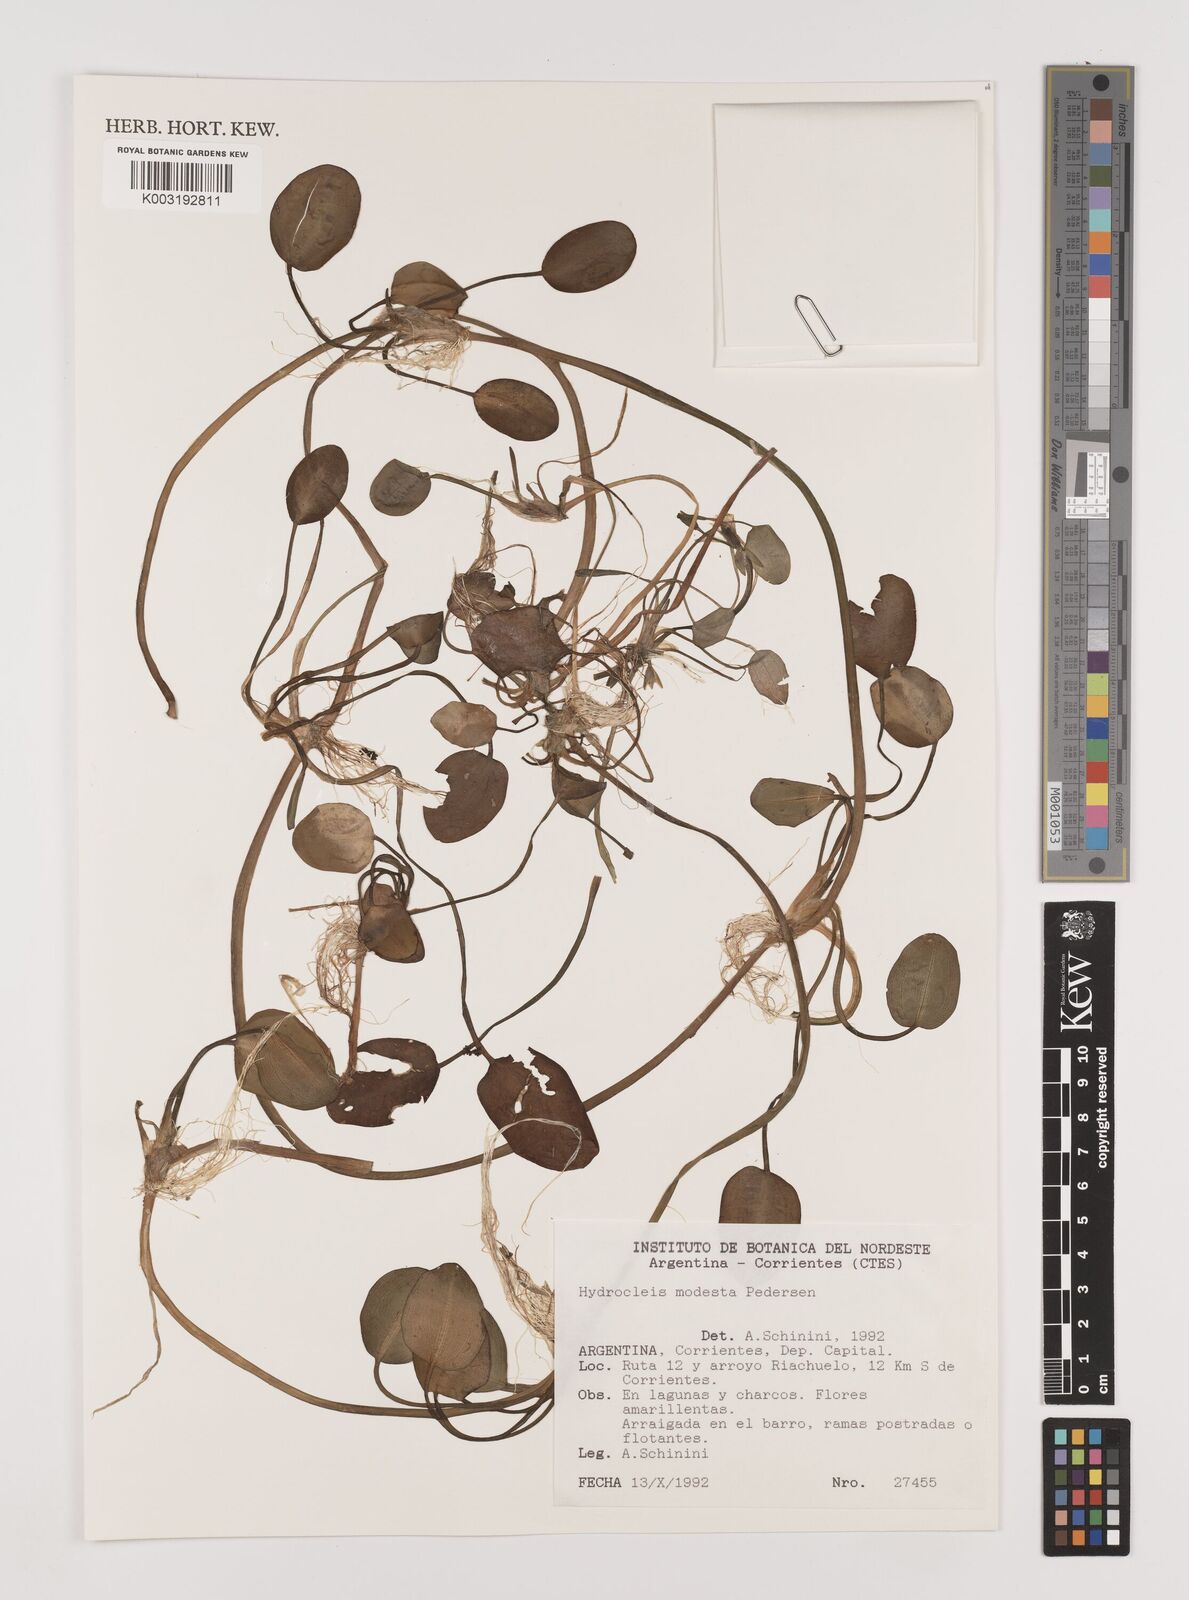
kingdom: Plantae
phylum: Tracheophyta
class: Liliopsida
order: Alismatales
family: Alismataceae
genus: Hydrocleys
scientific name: Hydrocleys modesta
